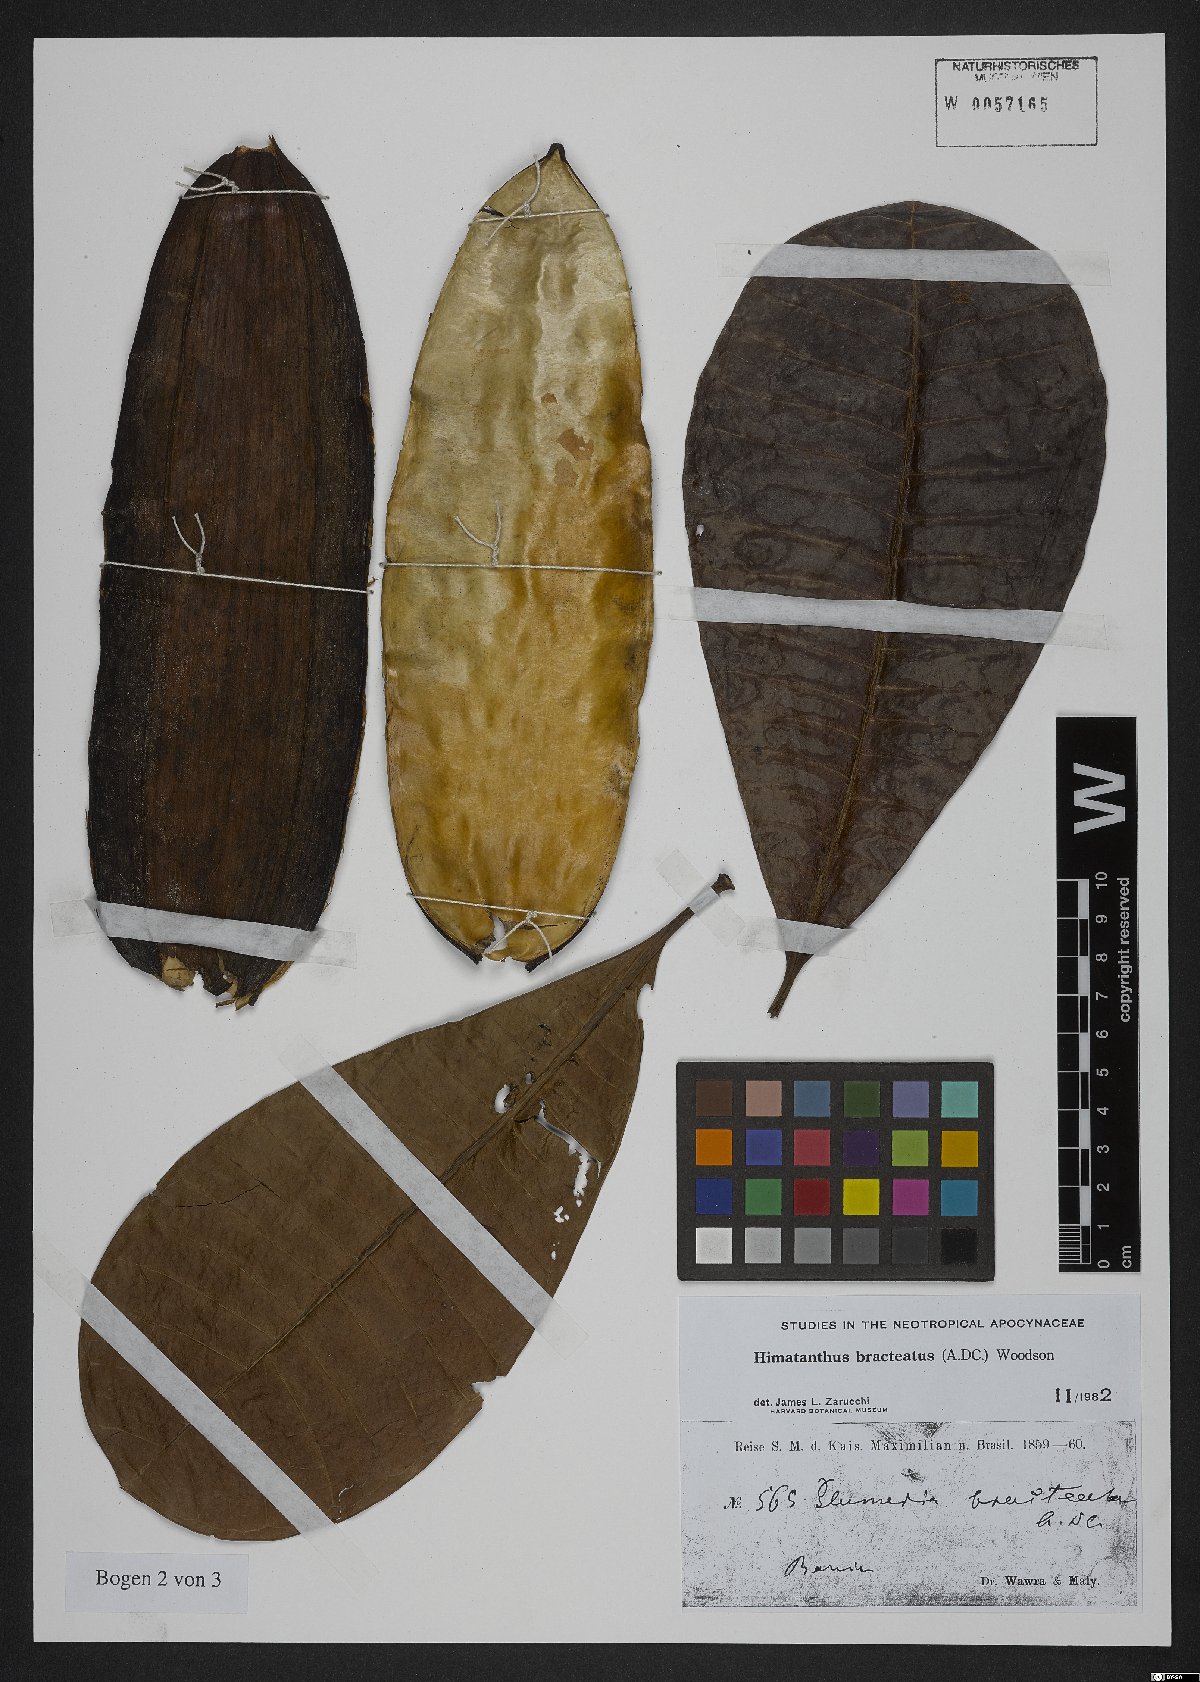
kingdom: Plantae
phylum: Tracheophyta
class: Magnoliopsida
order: Gentianales
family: Apocynaceae
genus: Himatanthus
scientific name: Himatanthus bracteatus
